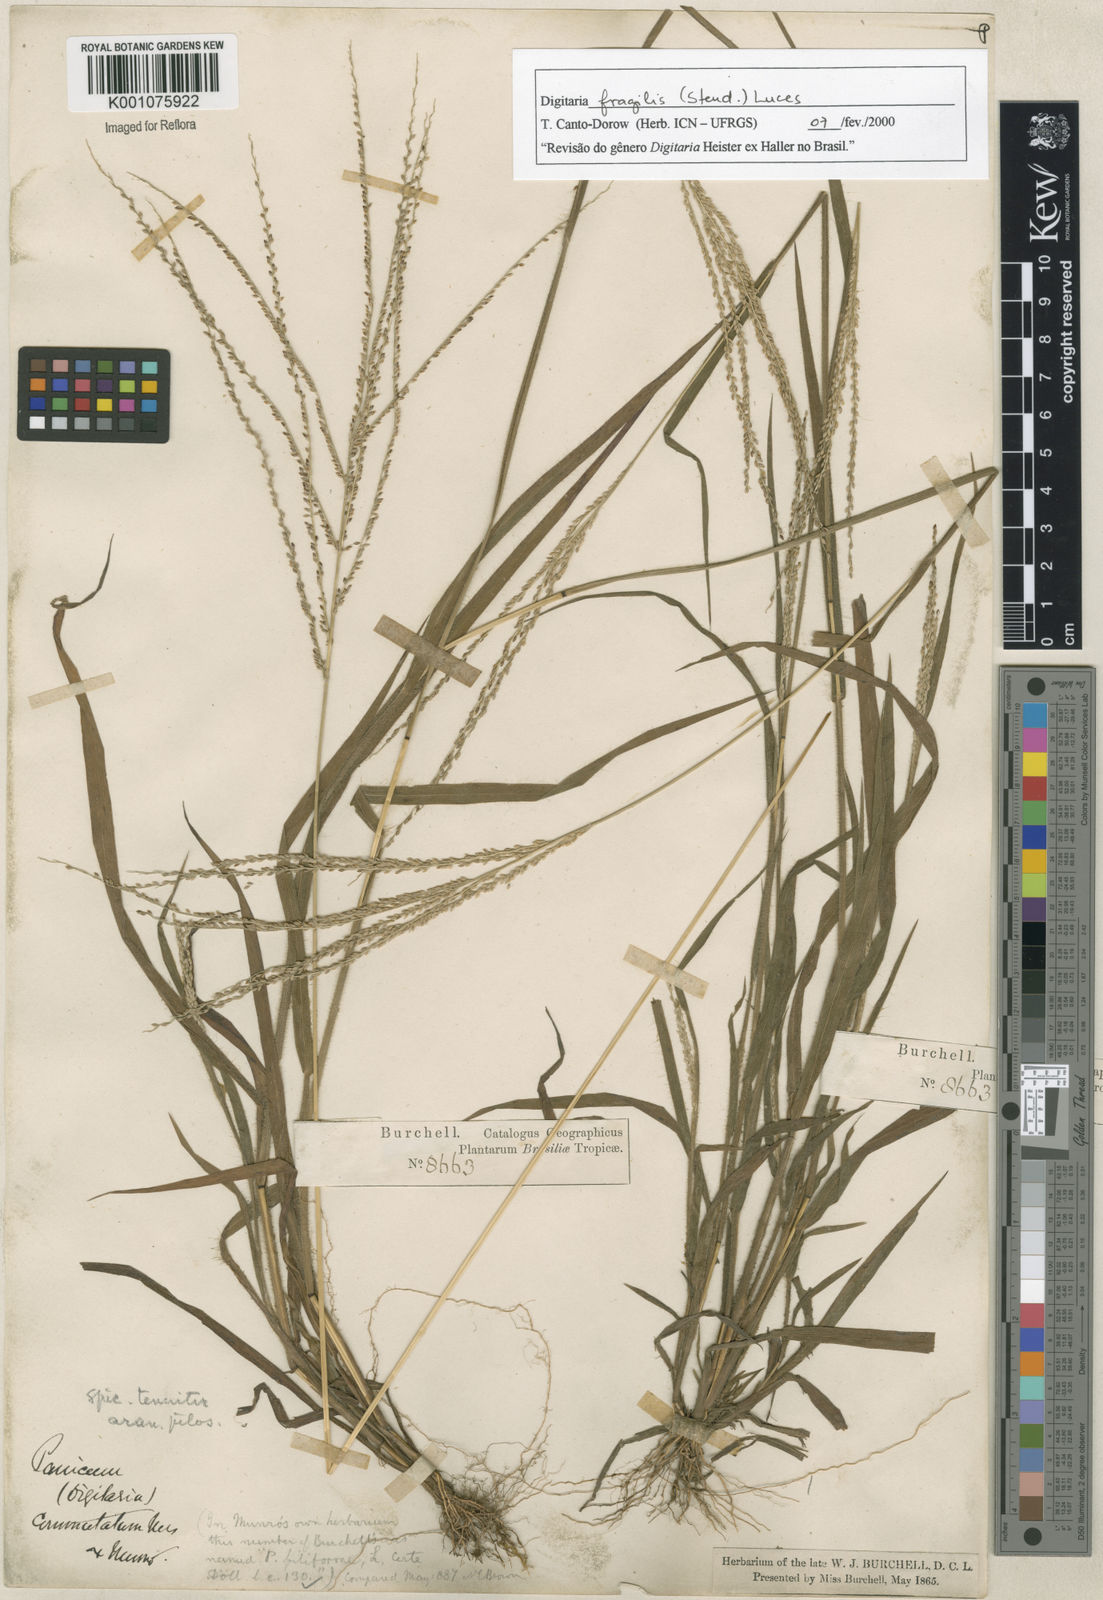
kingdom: Plantae
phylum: Tracheophyta
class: Liliopsida
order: Poales
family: Poaceae
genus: Digitaria
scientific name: Digitaria fragilis
